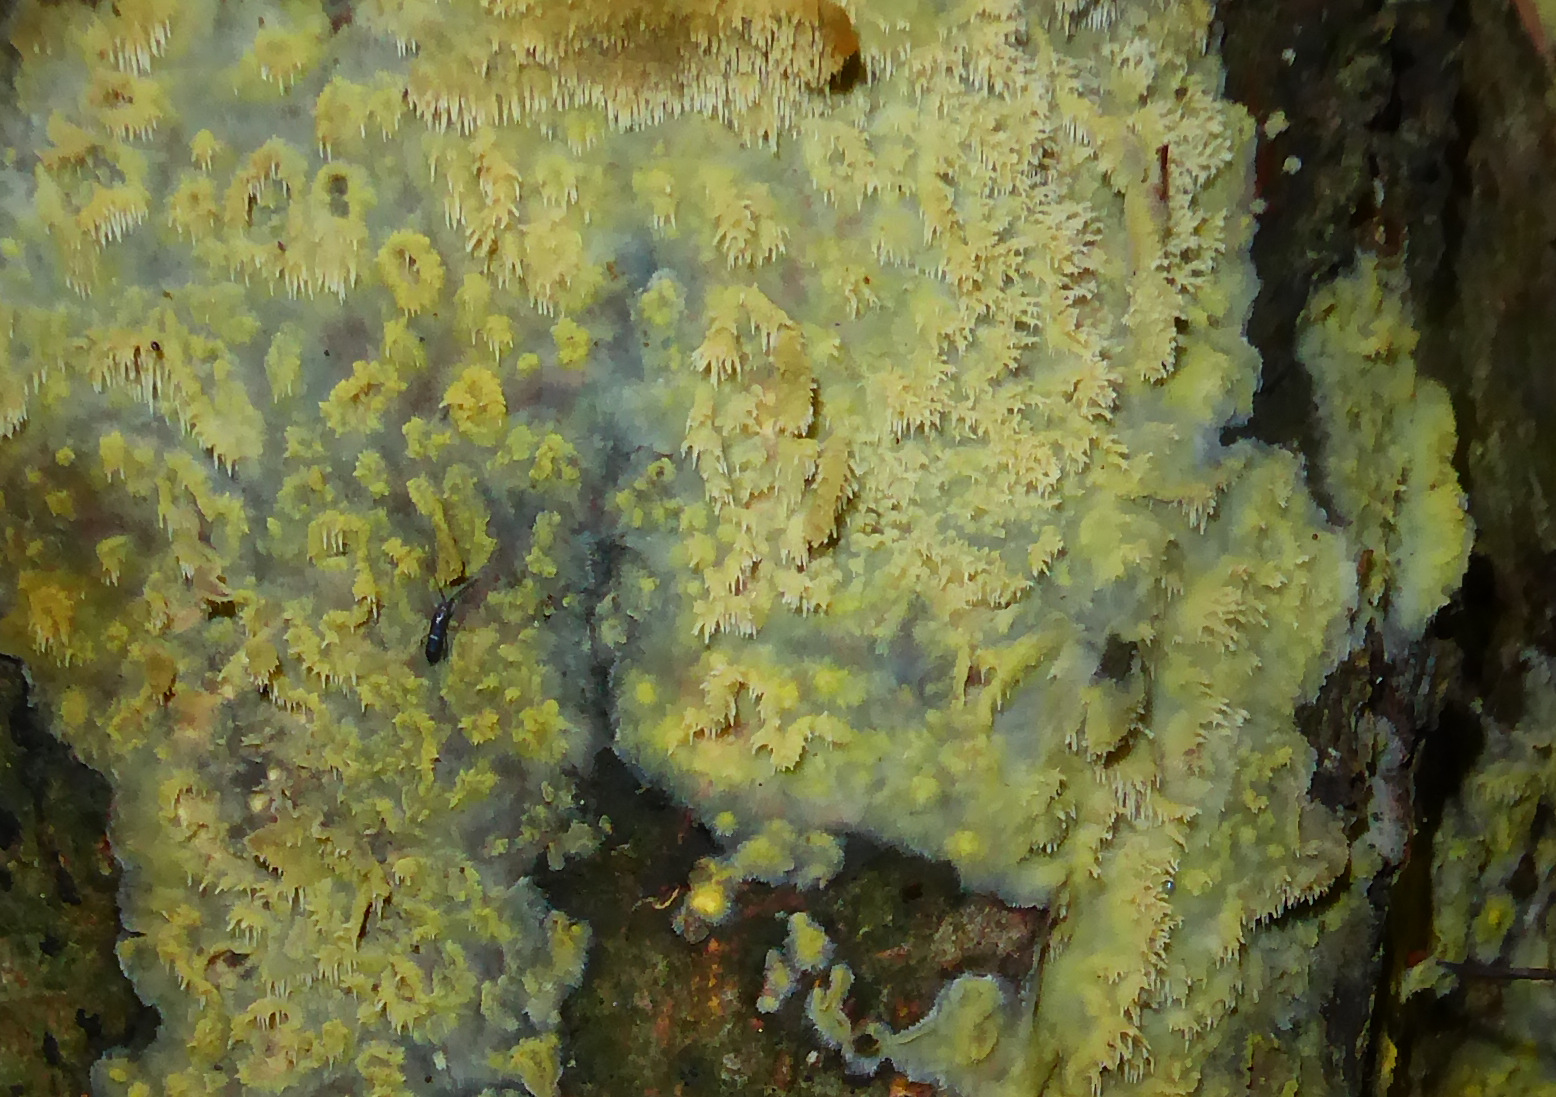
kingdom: Fungi
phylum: Basidiomycota
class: Agaricomycetes
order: Polyporales
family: Meruliaceae
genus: Mycoacia
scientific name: Mycoacia uda
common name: citrongul vokspig
